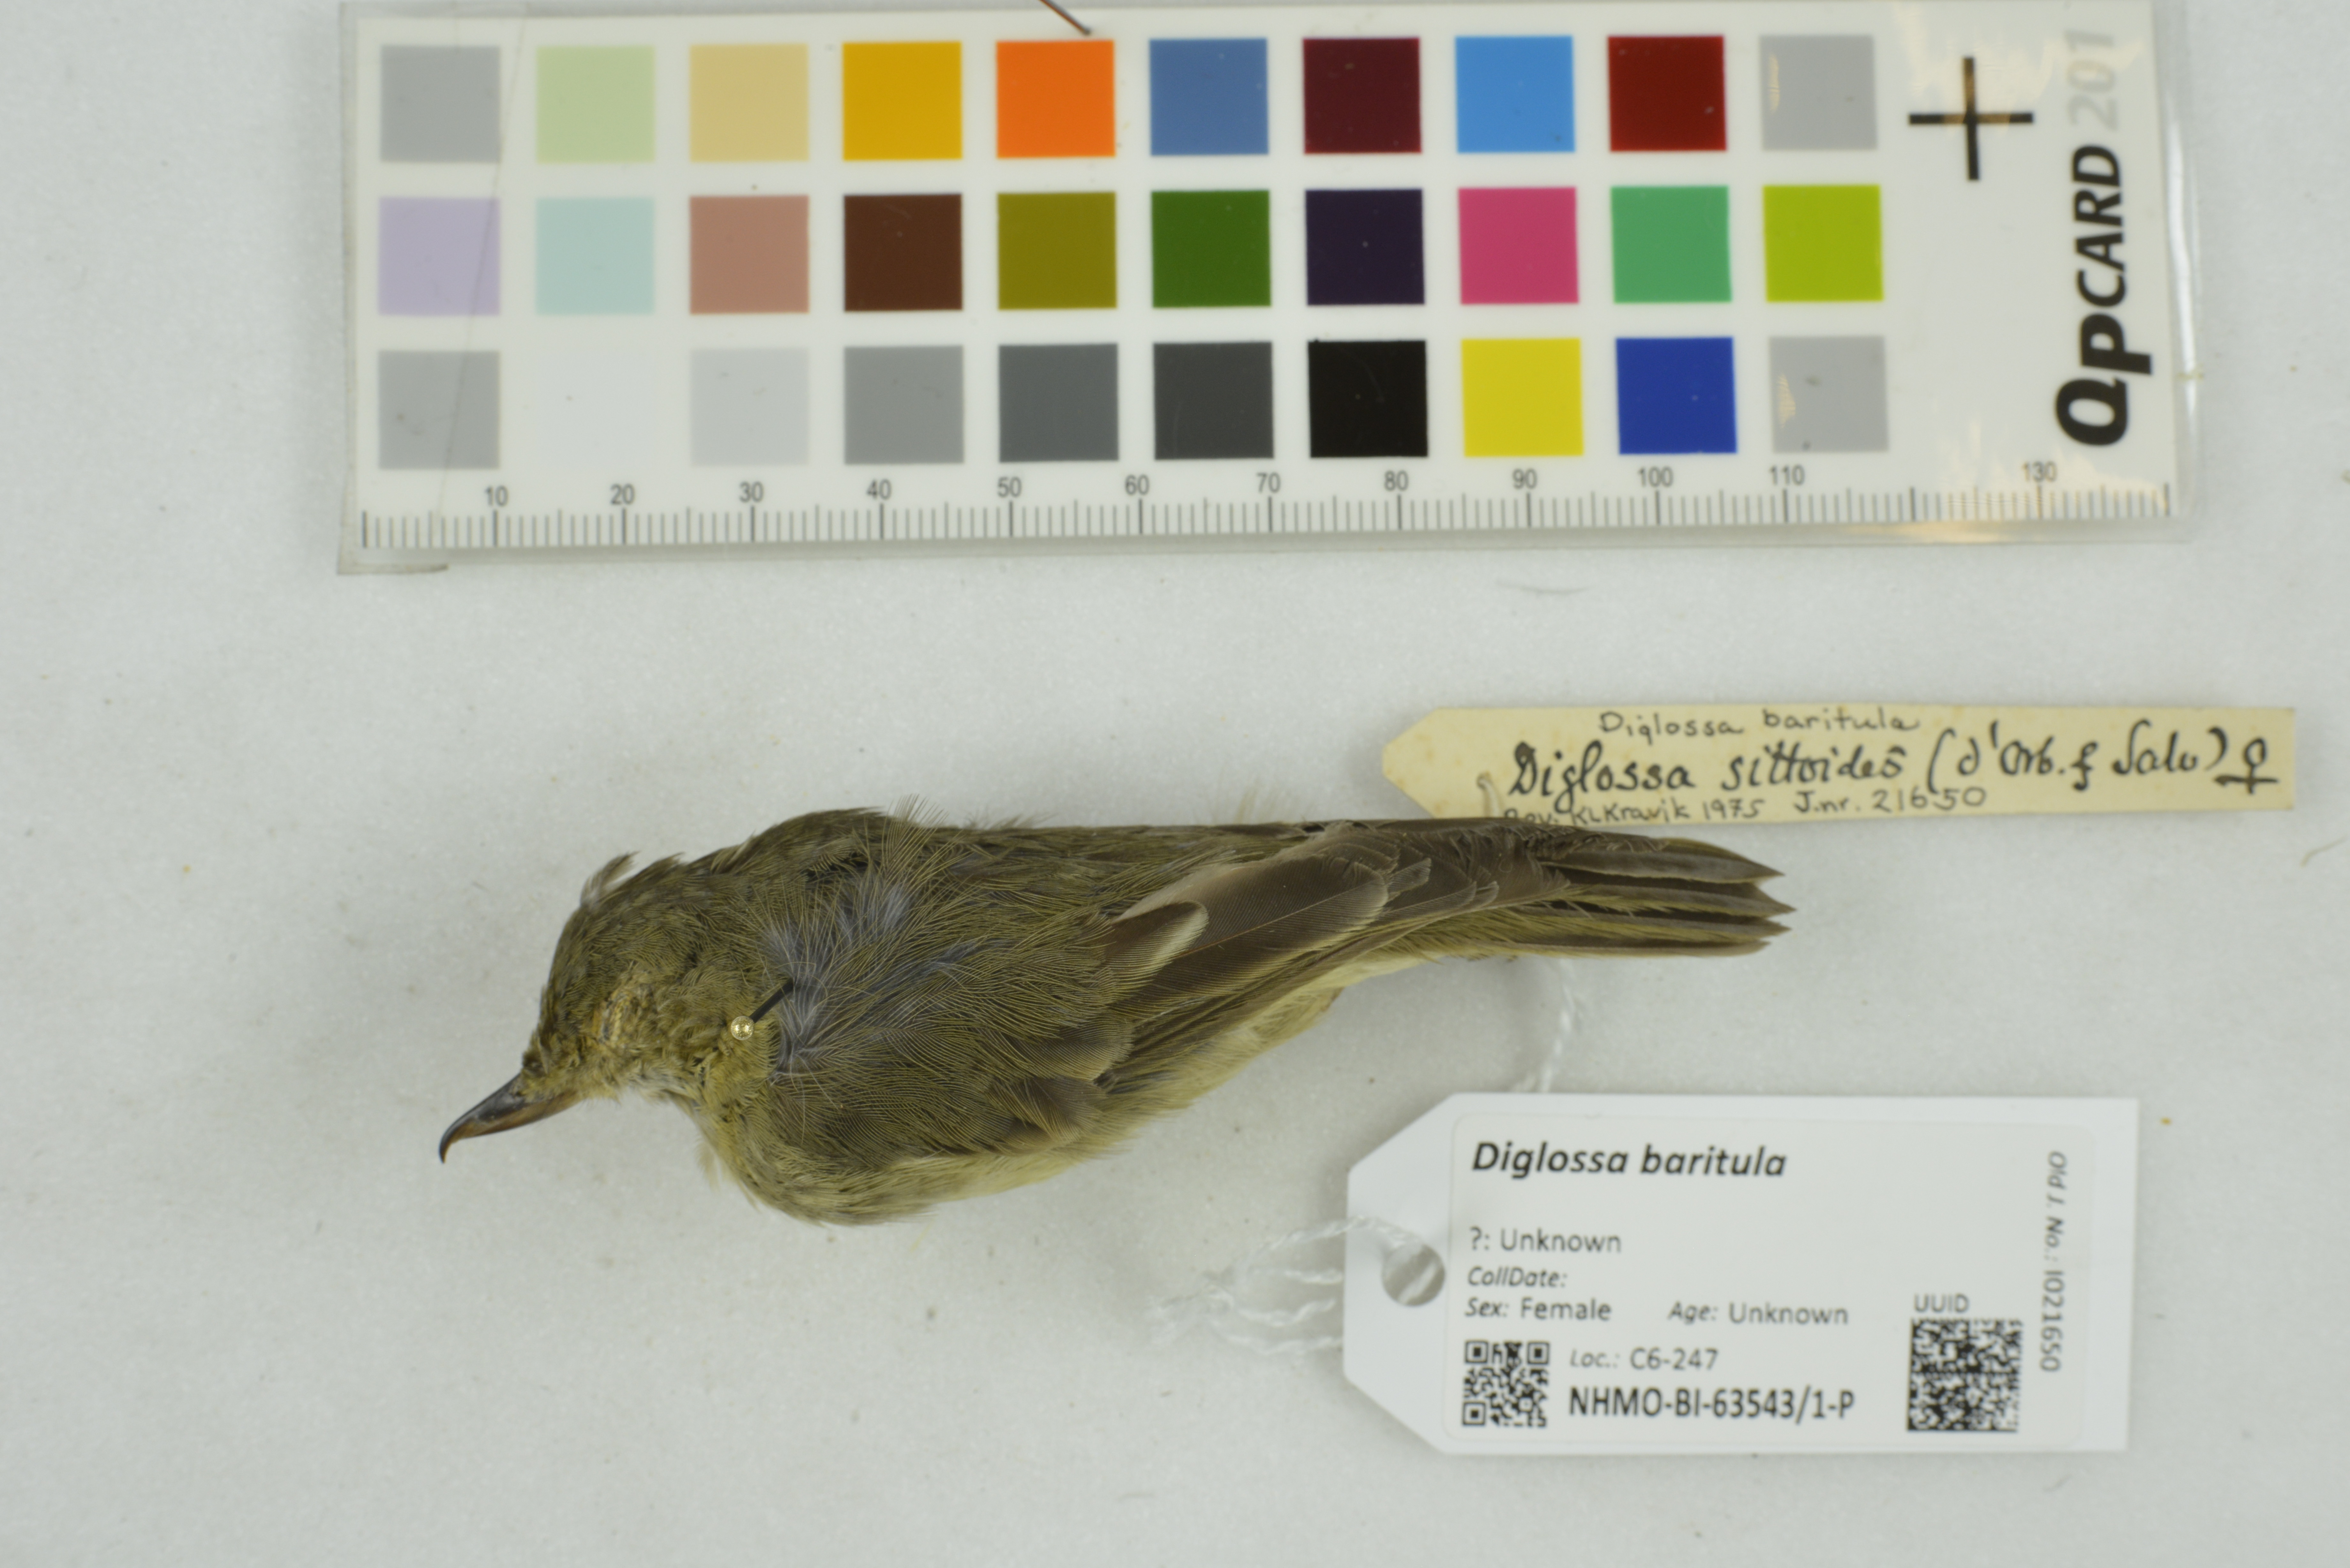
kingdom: Animalia
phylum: Chordata
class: Aves
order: Passeriformes
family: Thraupidae
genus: Diglossa
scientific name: Diglossa baritula
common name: Cinnamon-bellied flowerpiercer
